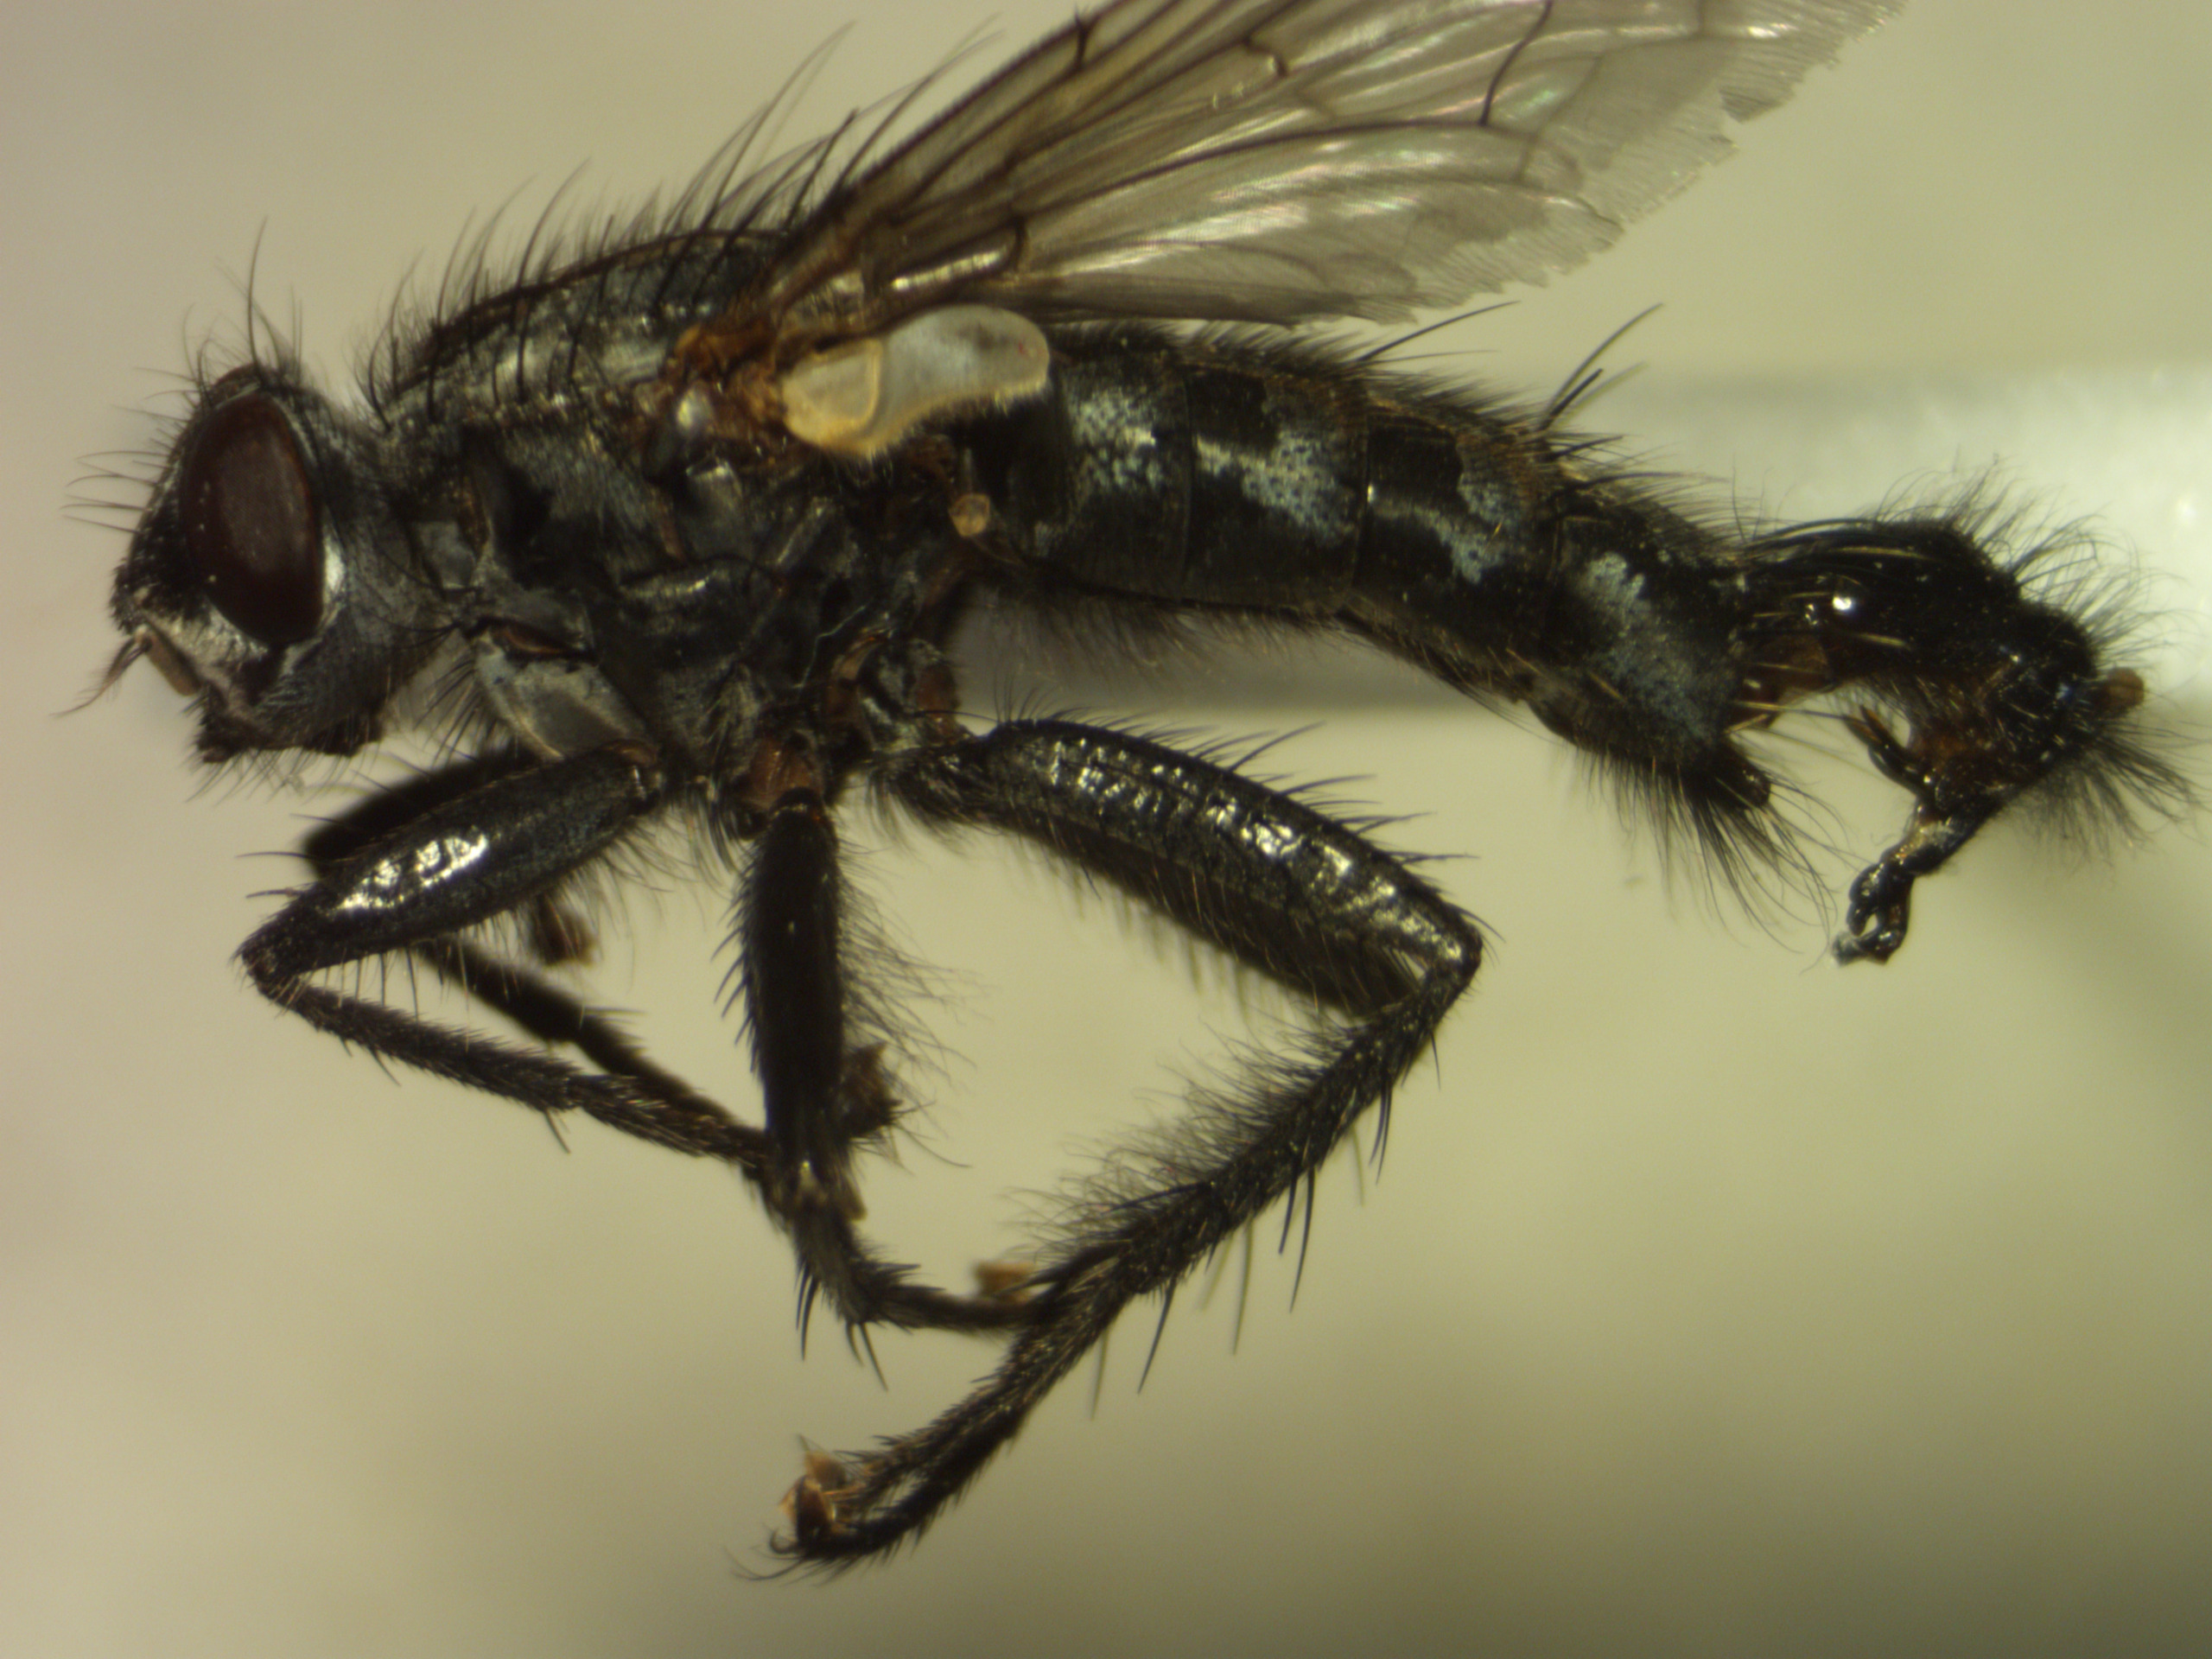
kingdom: Animalia
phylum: Arthropoda
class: Insecta
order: Diptera
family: Sarcophagidae
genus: Sarcophaga
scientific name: Sarcophaga variegata
